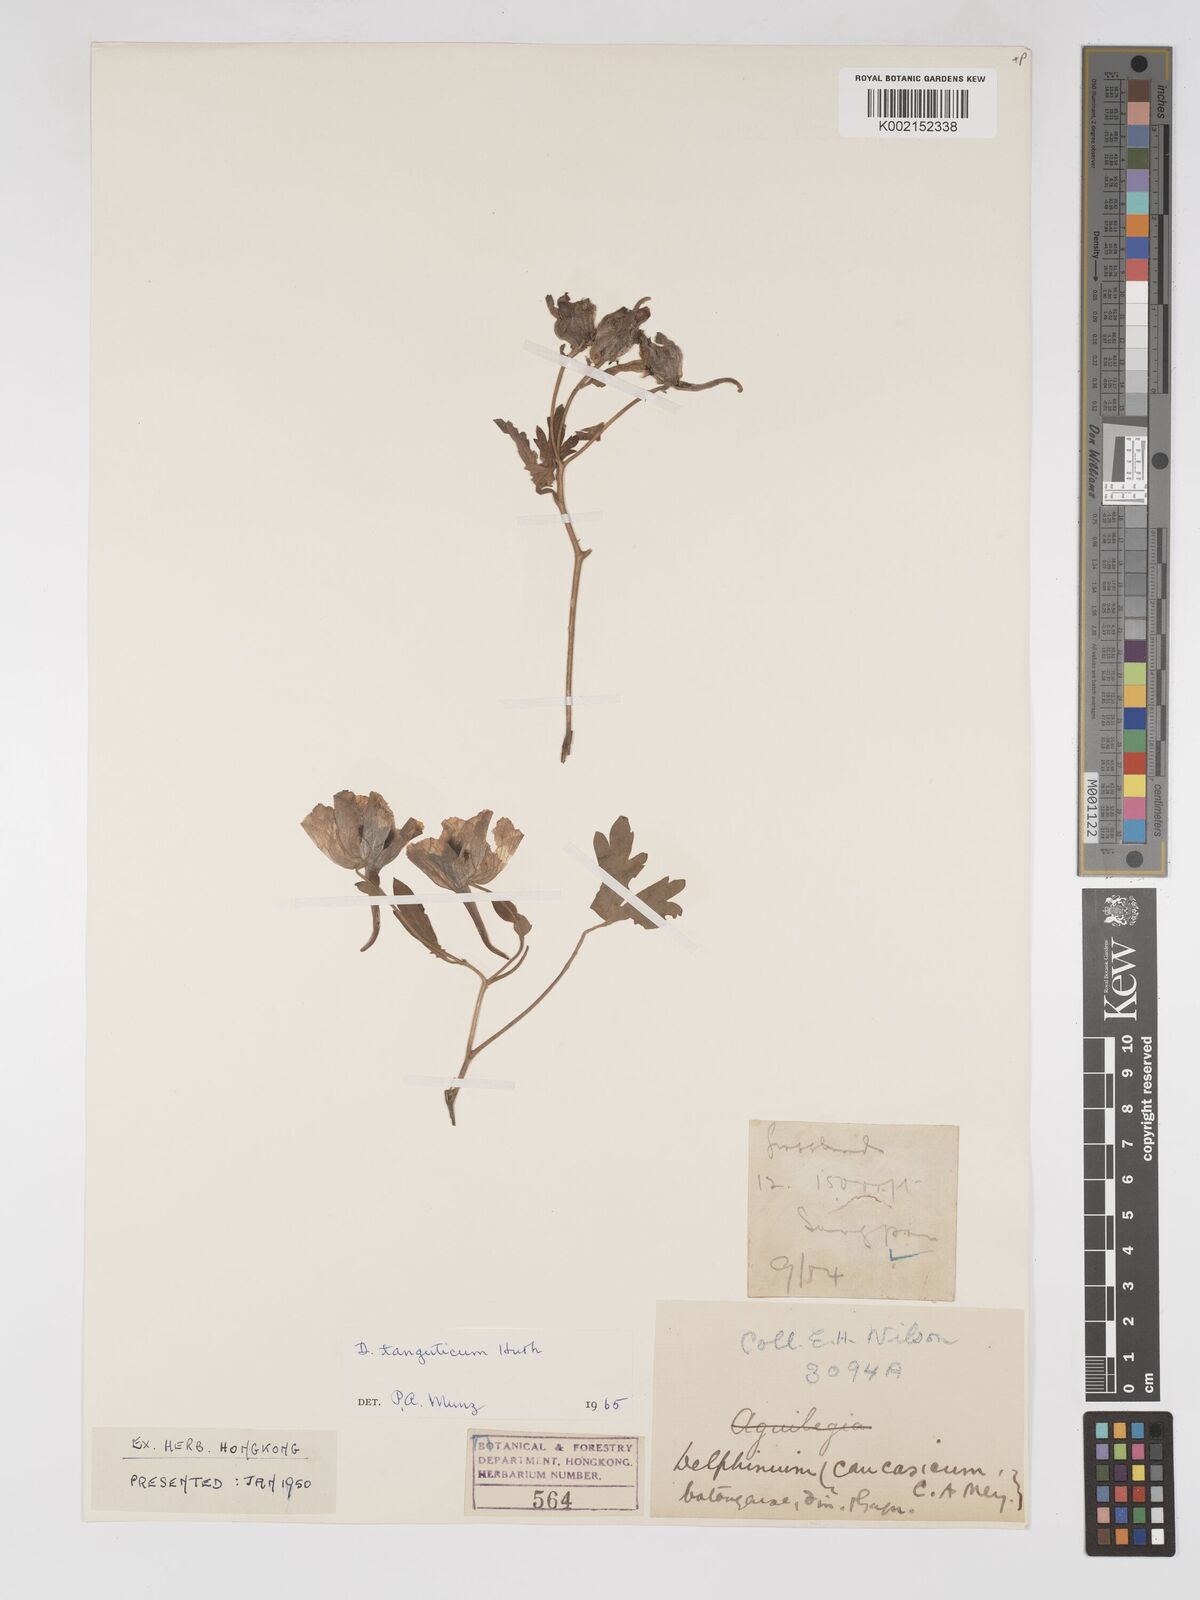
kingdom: Plantae
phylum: Tracheophyta
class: Magnoliopsida
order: Ranunculales
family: Ranunculaceae
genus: Delphinium
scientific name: Delphinium pylzowii
